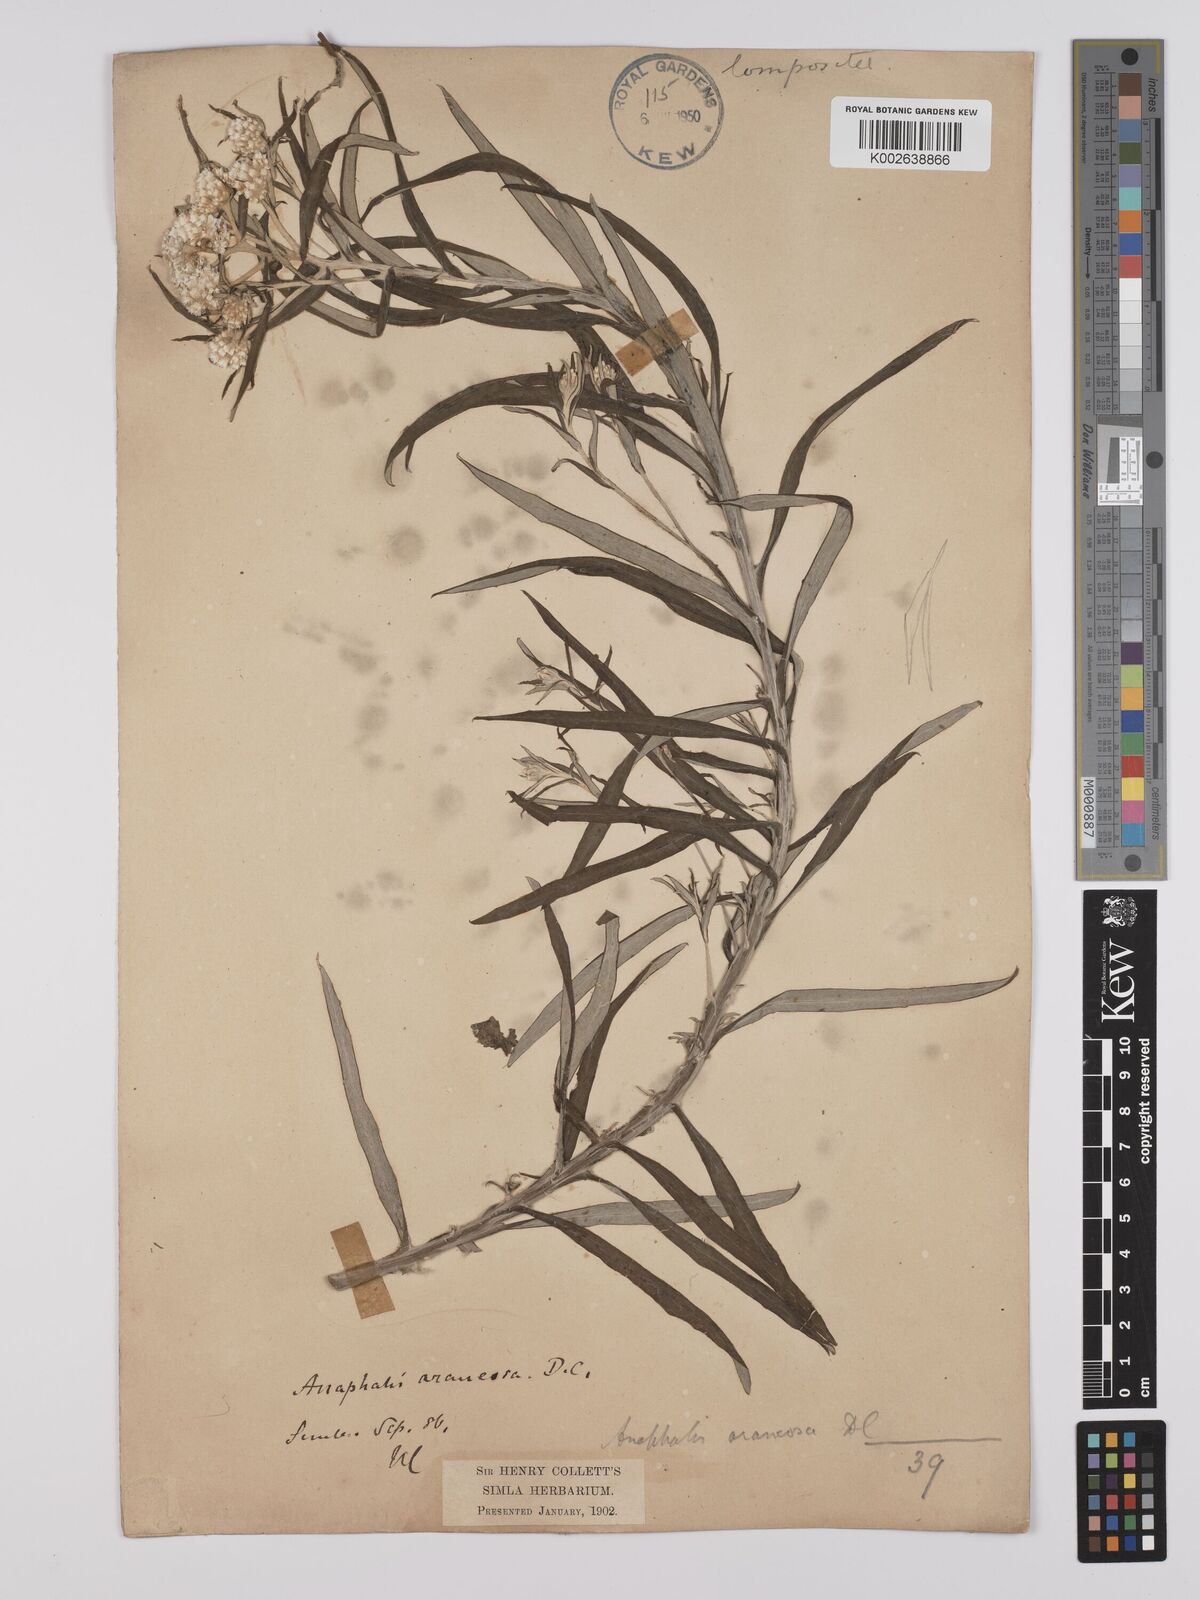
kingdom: Plantae
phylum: Tracheophyta
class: Magnoliopsida
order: Asterales
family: Asteraceae
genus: Anaphalis
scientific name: Anaphalis busua
